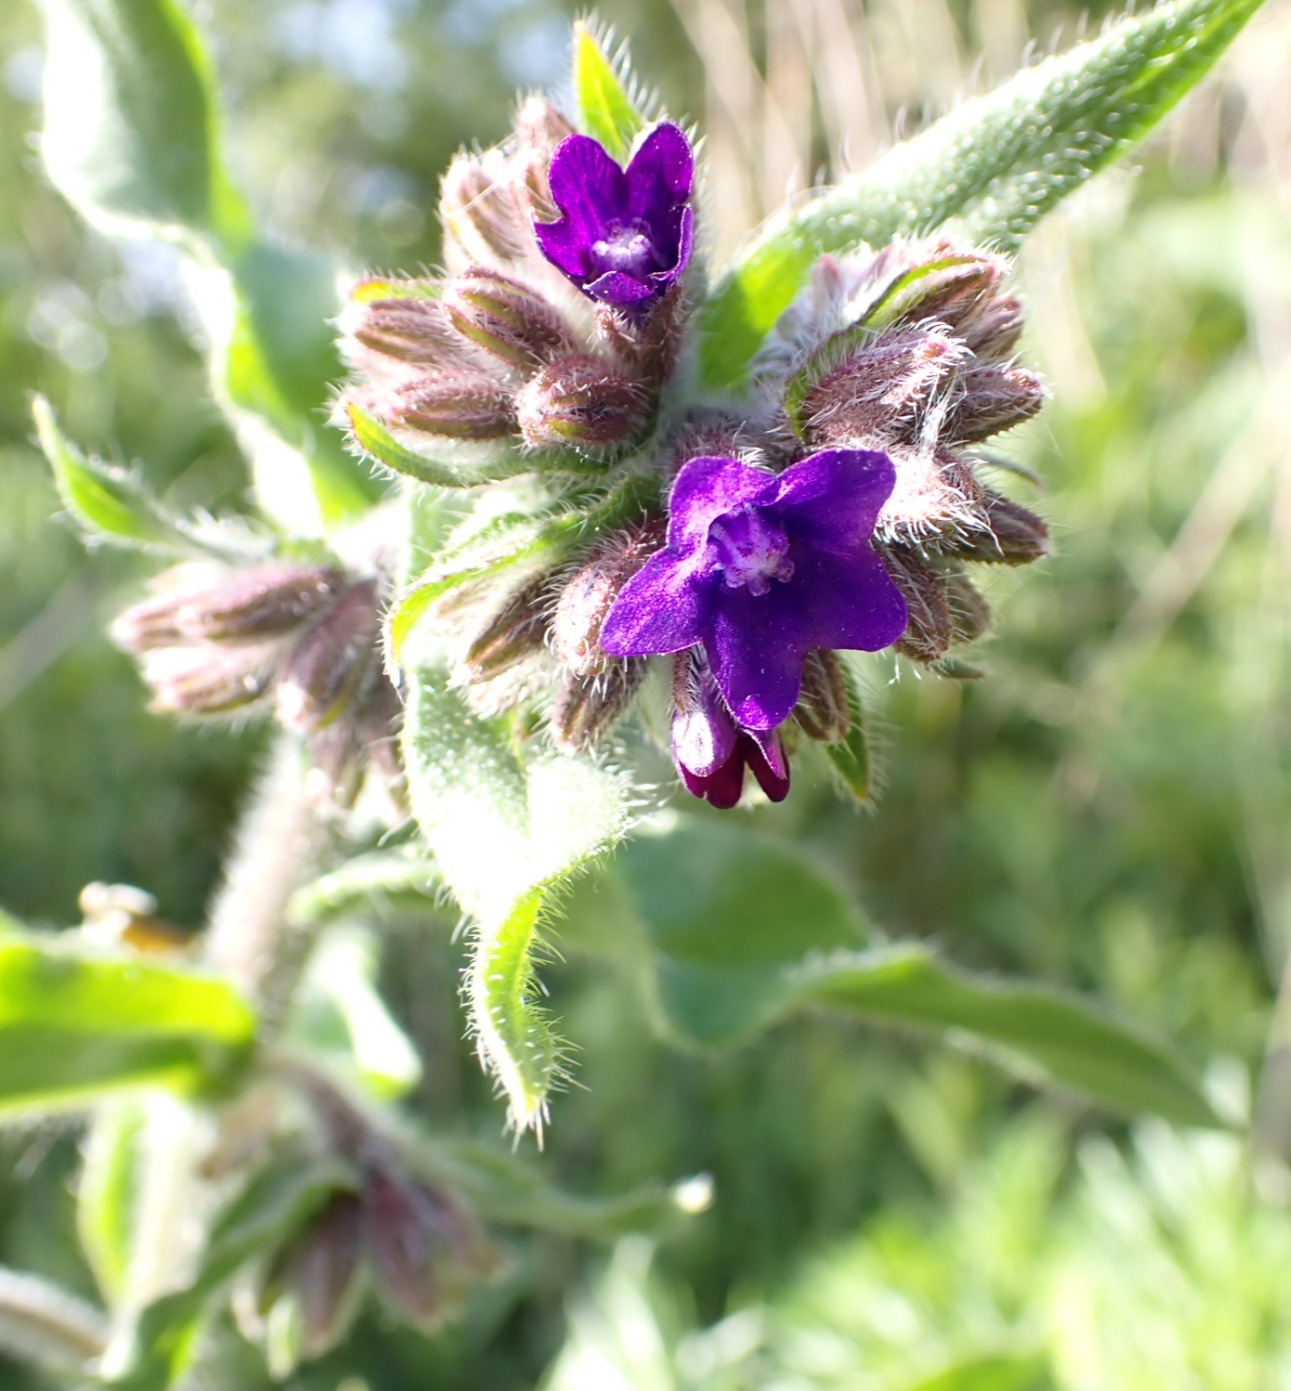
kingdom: Plantae
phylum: Tracheophyta
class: Magnoliopsida
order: Boraginales
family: Boraginaceae
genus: Anchusa
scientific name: Anchusa officinalis
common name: Læge-oksetunge
